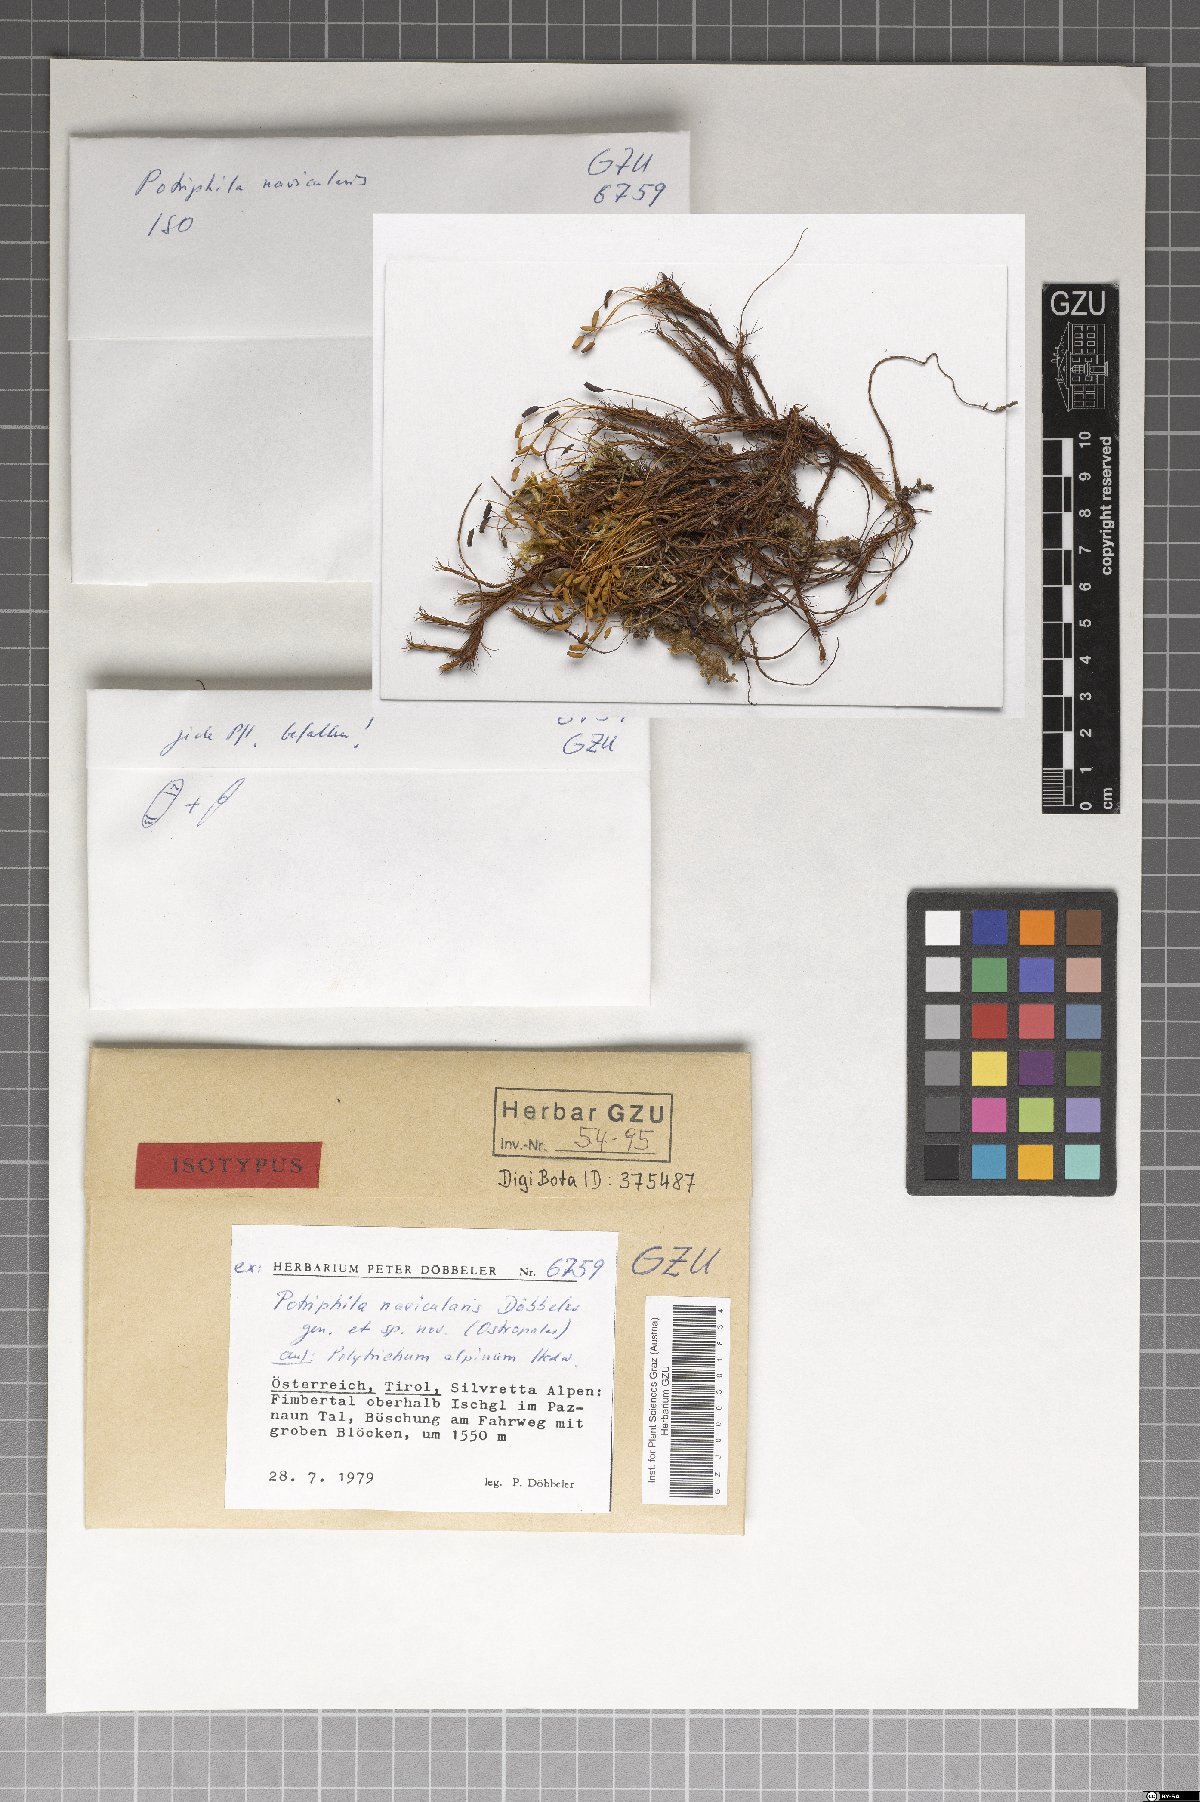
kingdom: Fungi
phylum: Ascomycota
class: Lecanoromycetes
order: Ostropales
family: Odontotremataceae
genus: Potriphila
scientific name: Potriphila navicularis
